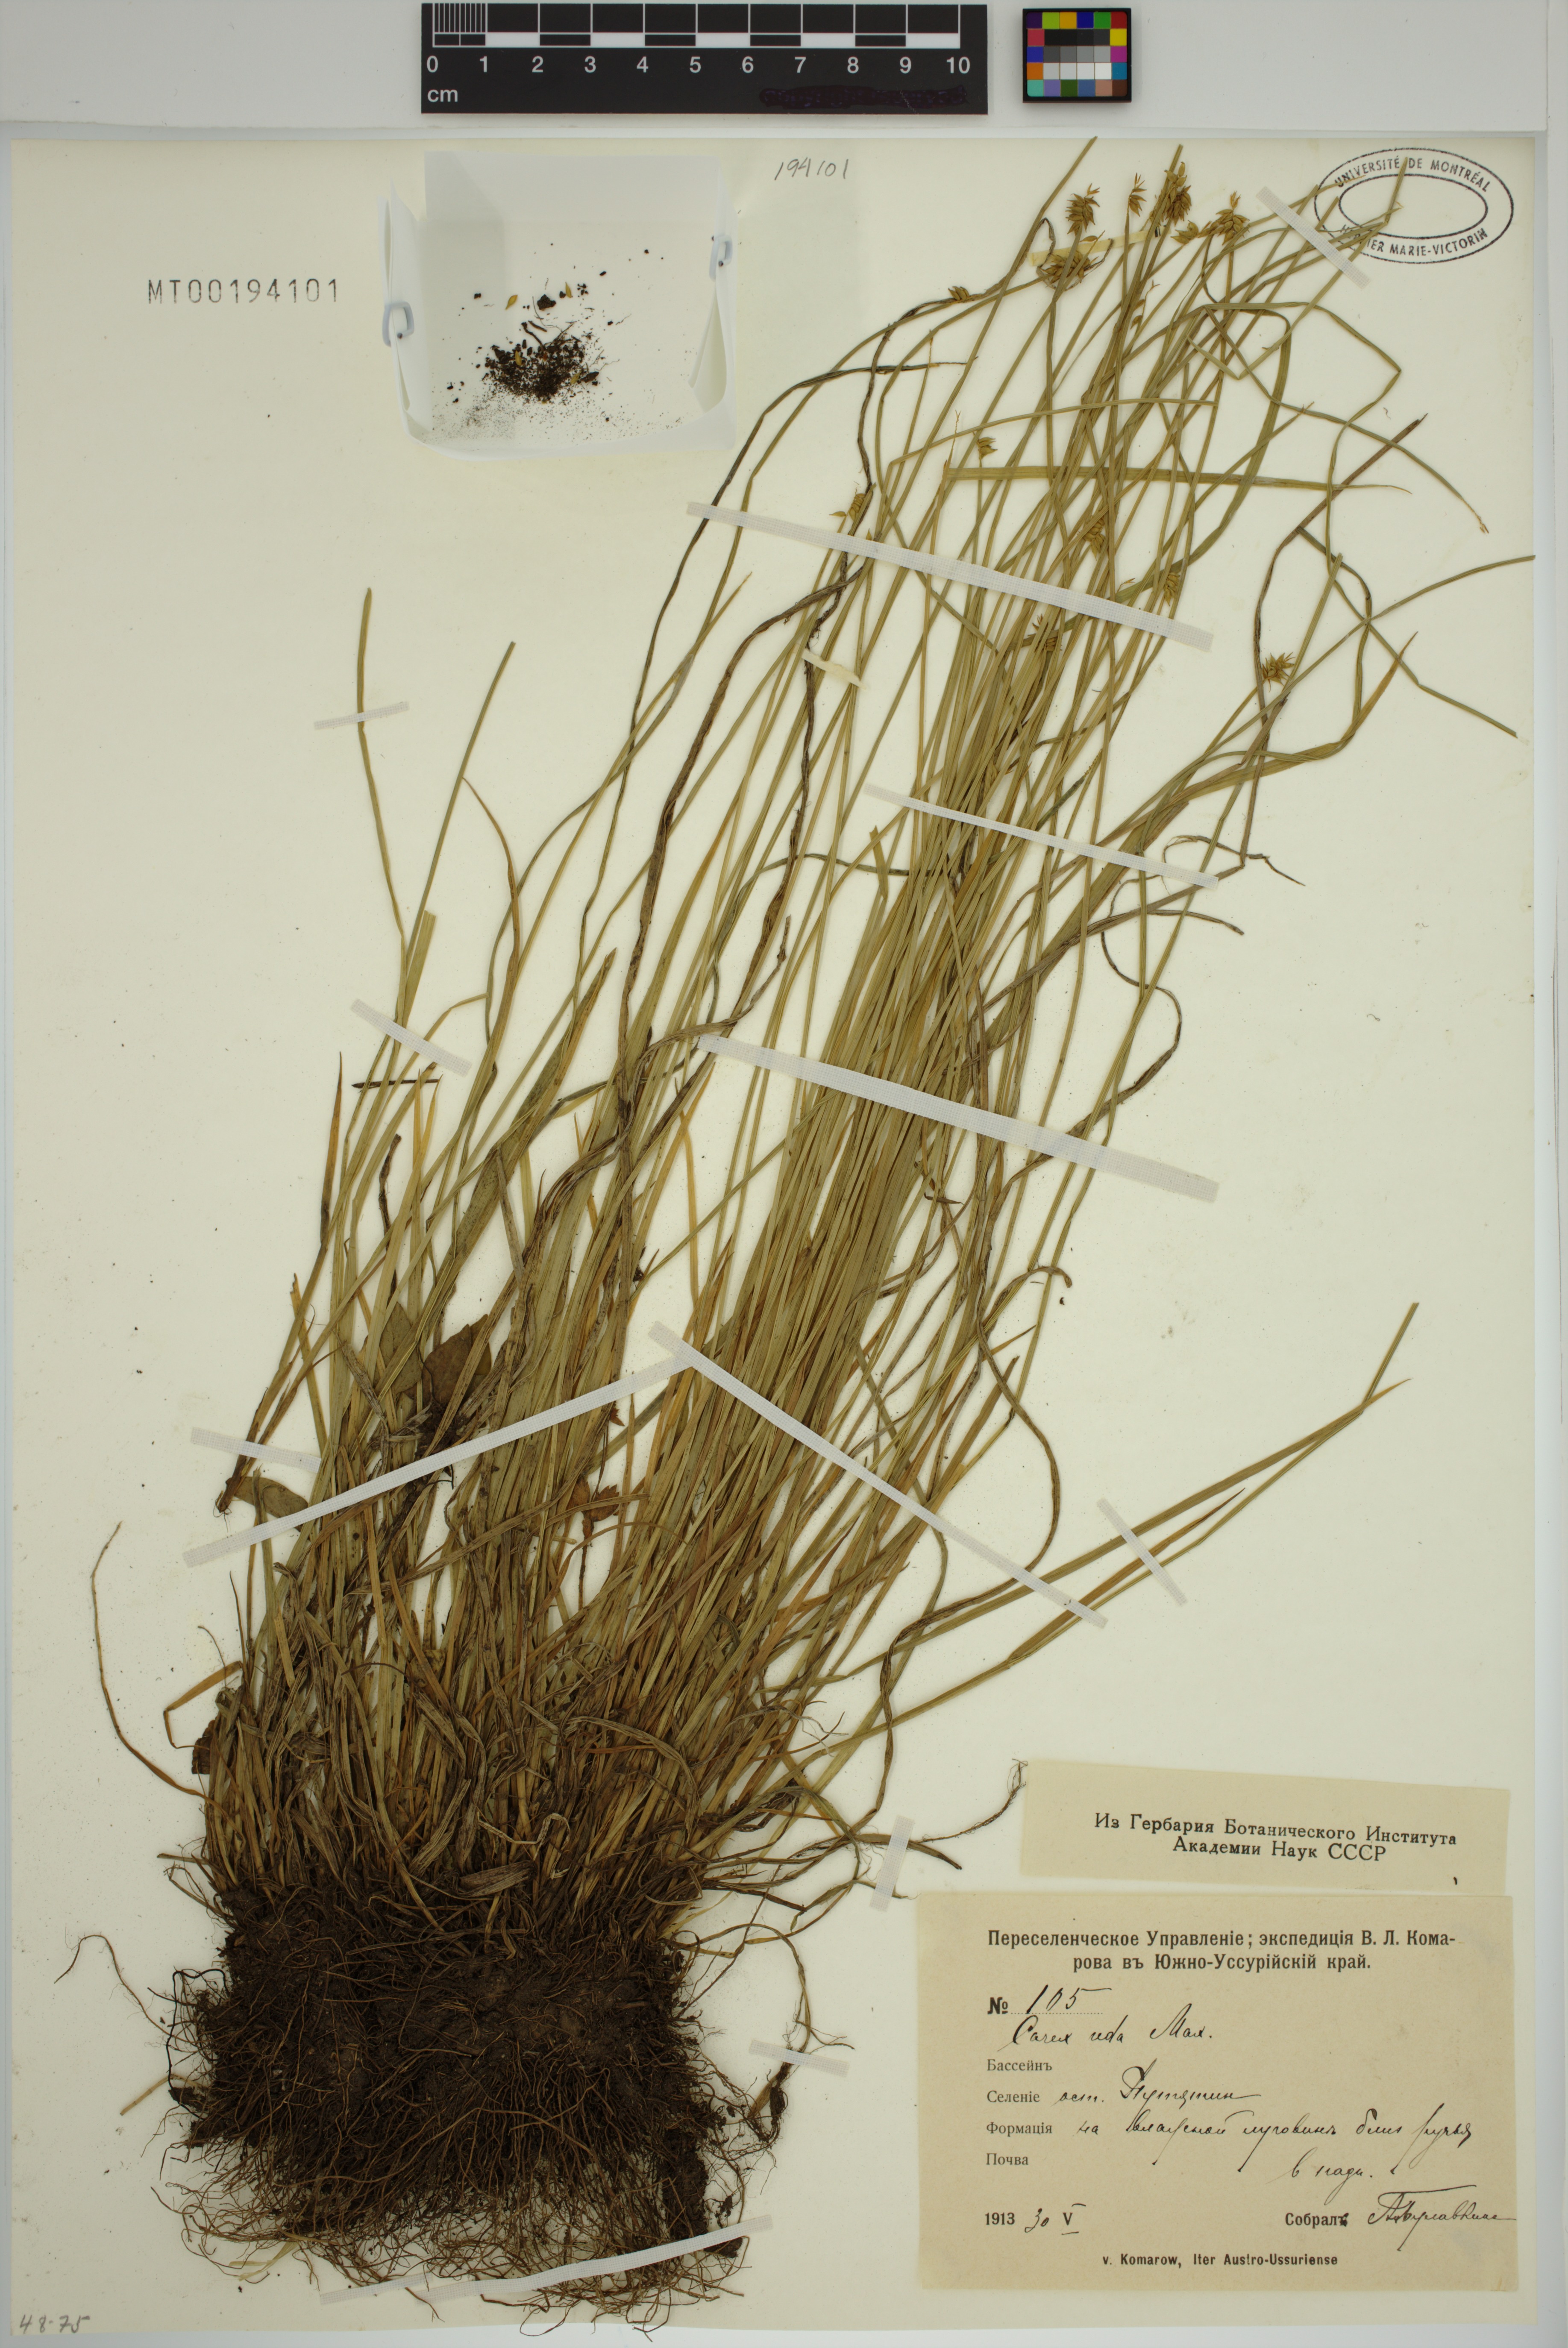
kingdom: Plantae
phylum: Tracheophyta
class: Liliopsida
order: Poales
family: Cyperaceae
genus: Carex
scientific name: Carex uda
